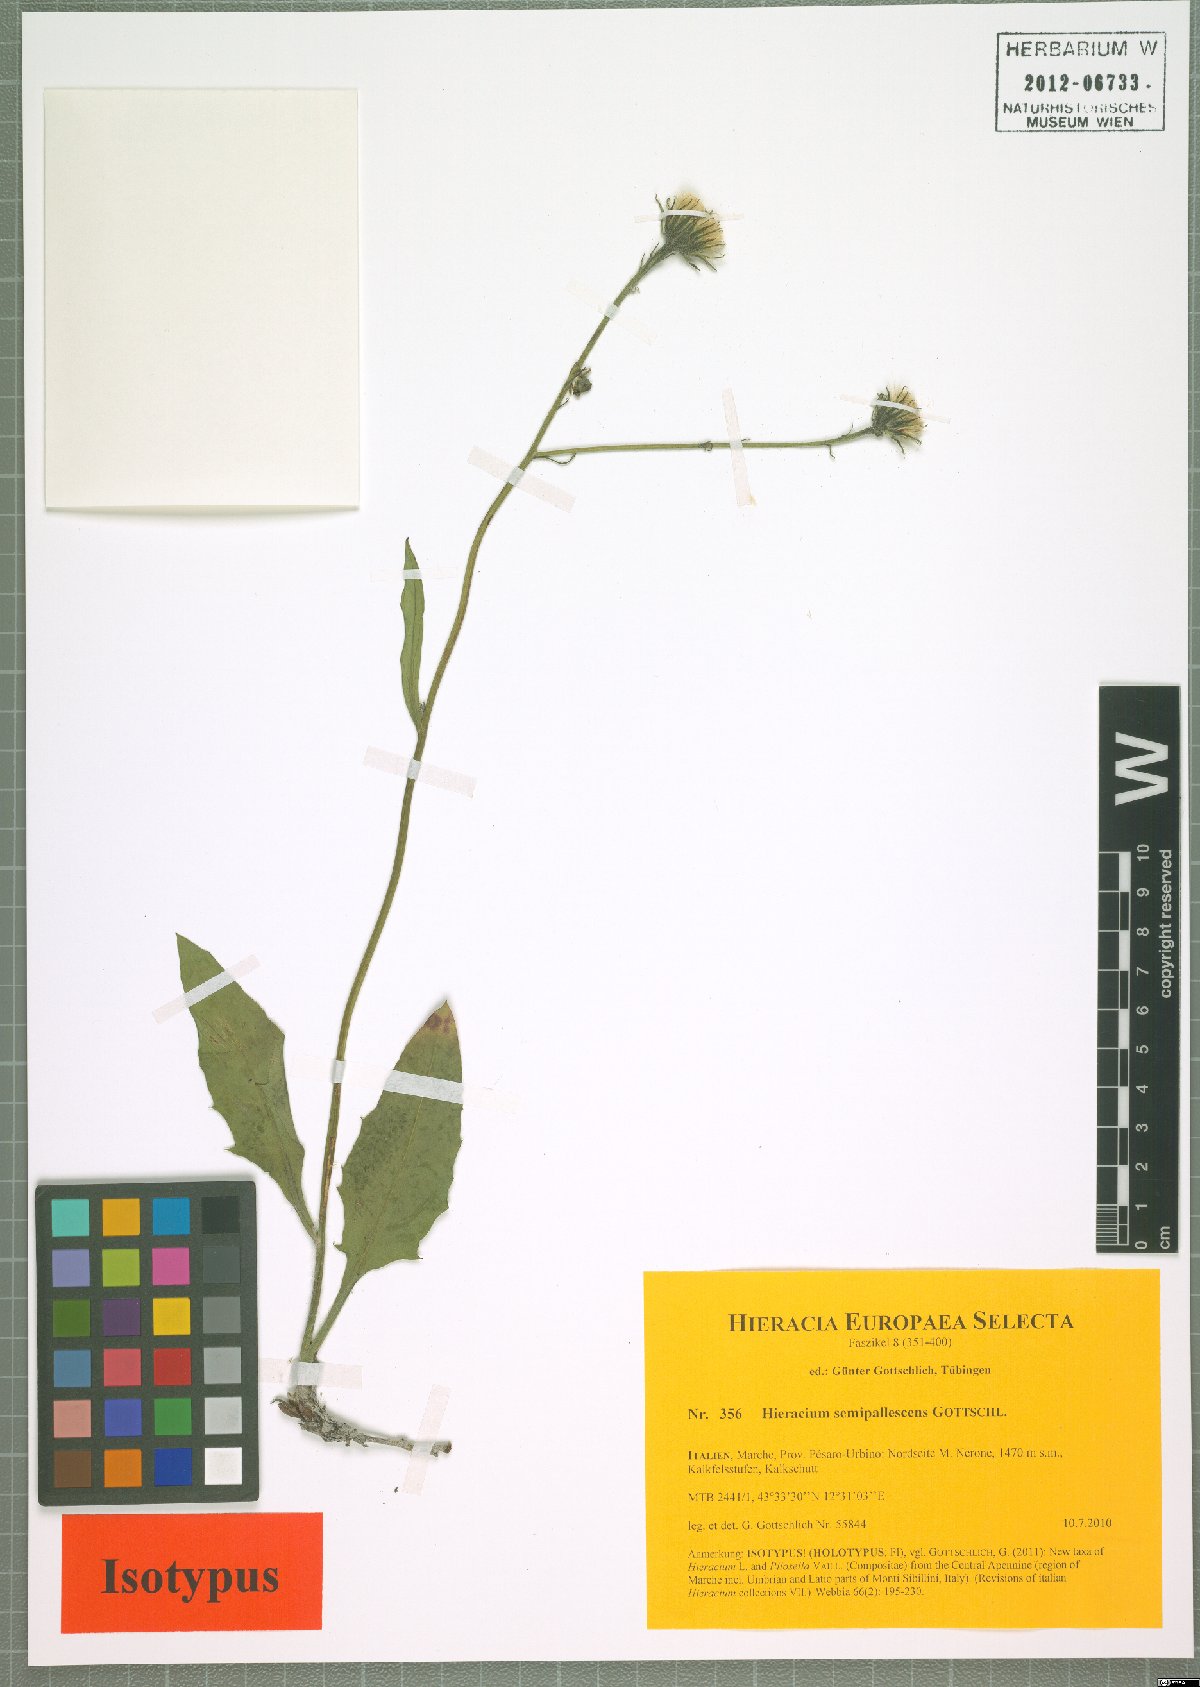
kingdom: Plantae
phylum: Tracheophyta
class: Magnoliopsida
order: Asterales
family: Asteraceae
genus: Hieracium
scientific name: Hieracium semipallescens
